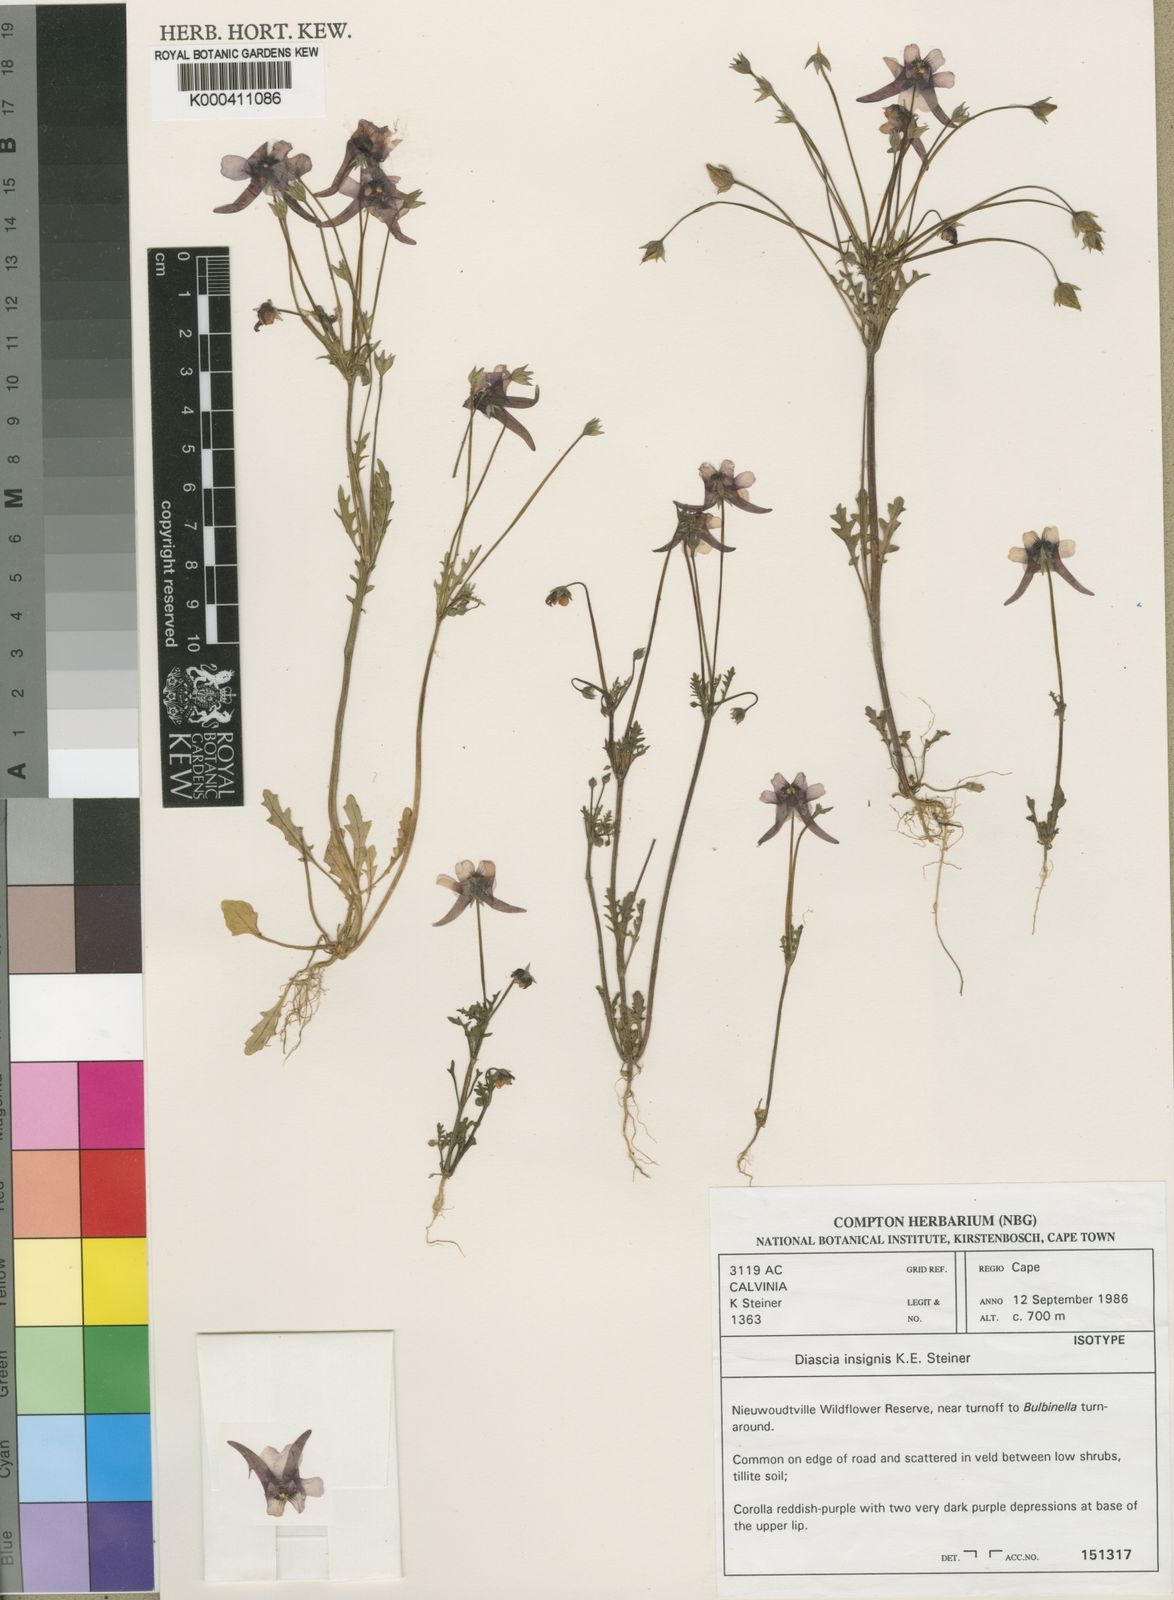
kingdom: Plantae
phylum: Tracheophyta
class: Magnoliopsida
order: Lamiales
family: Scrophulariaceae
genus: Diascia
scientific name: Diascia insignis
